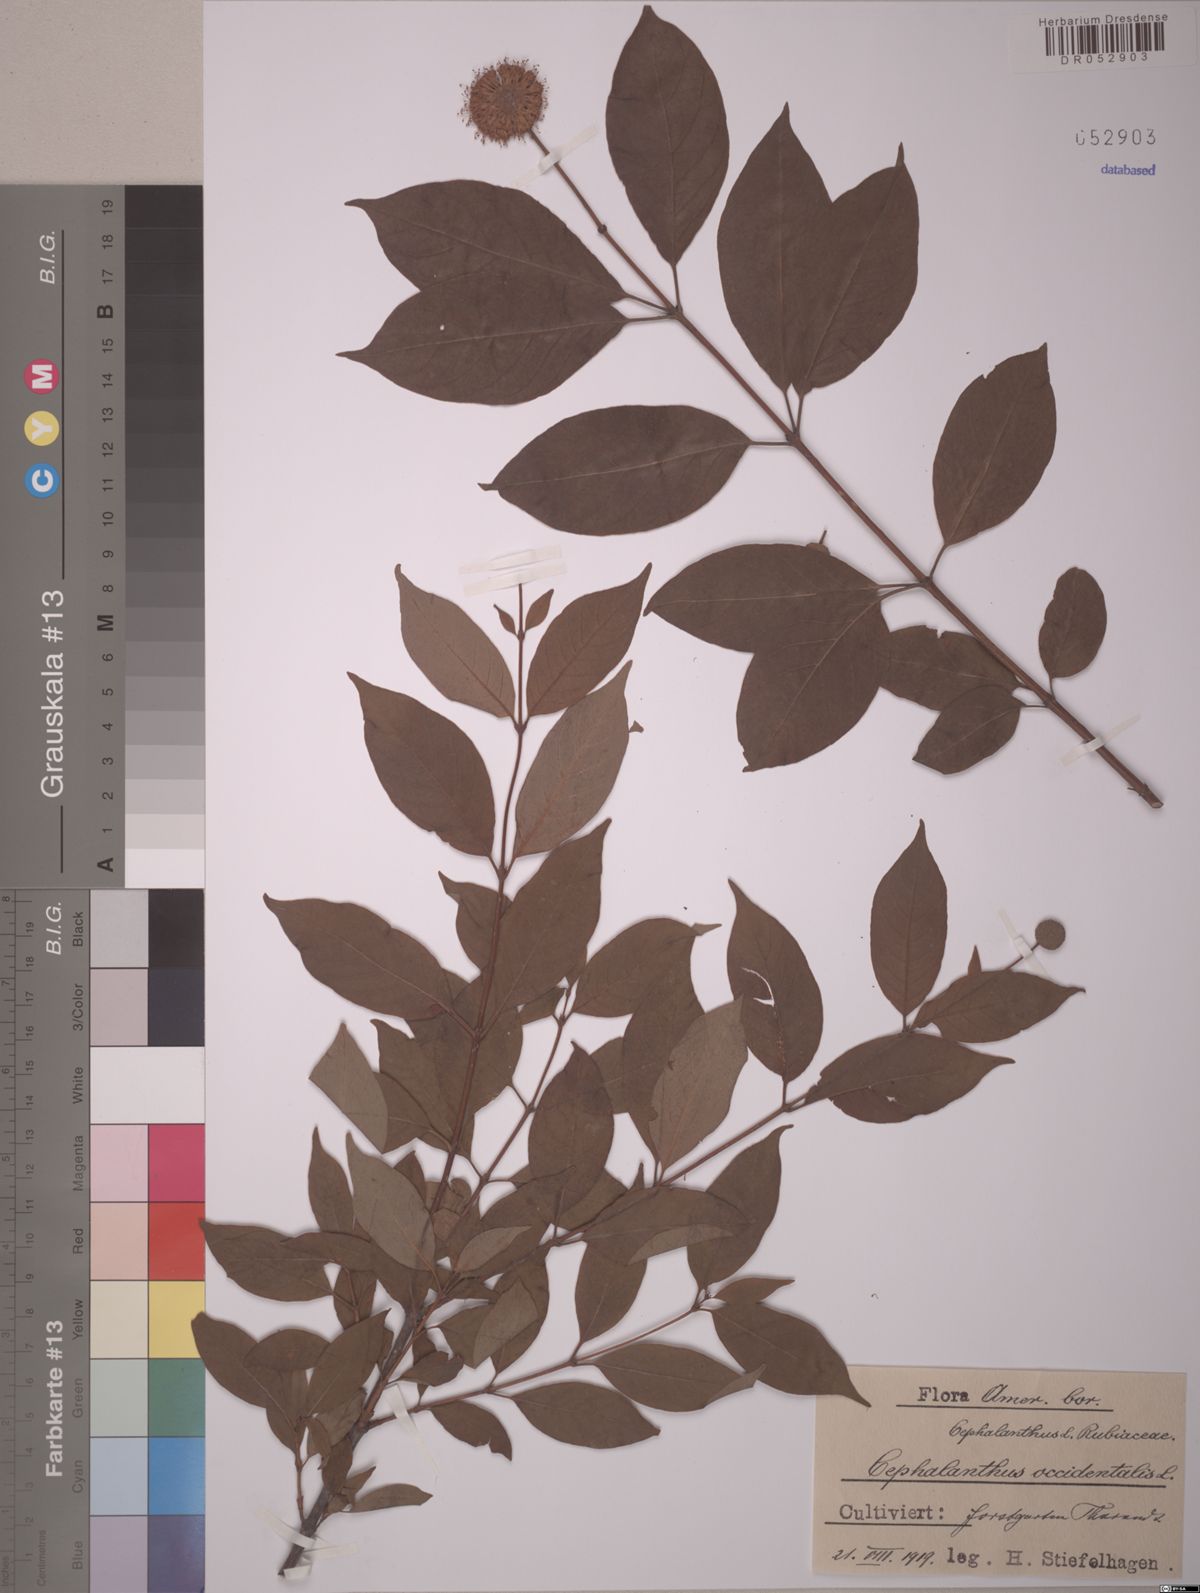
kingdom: Plantae
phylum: Tracheophyta
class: Magnoliopsida
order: Gentianales
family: Rubiaceae
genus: Cephalanthus
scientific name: Cephalanthus occidentalis
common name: Button-willow
